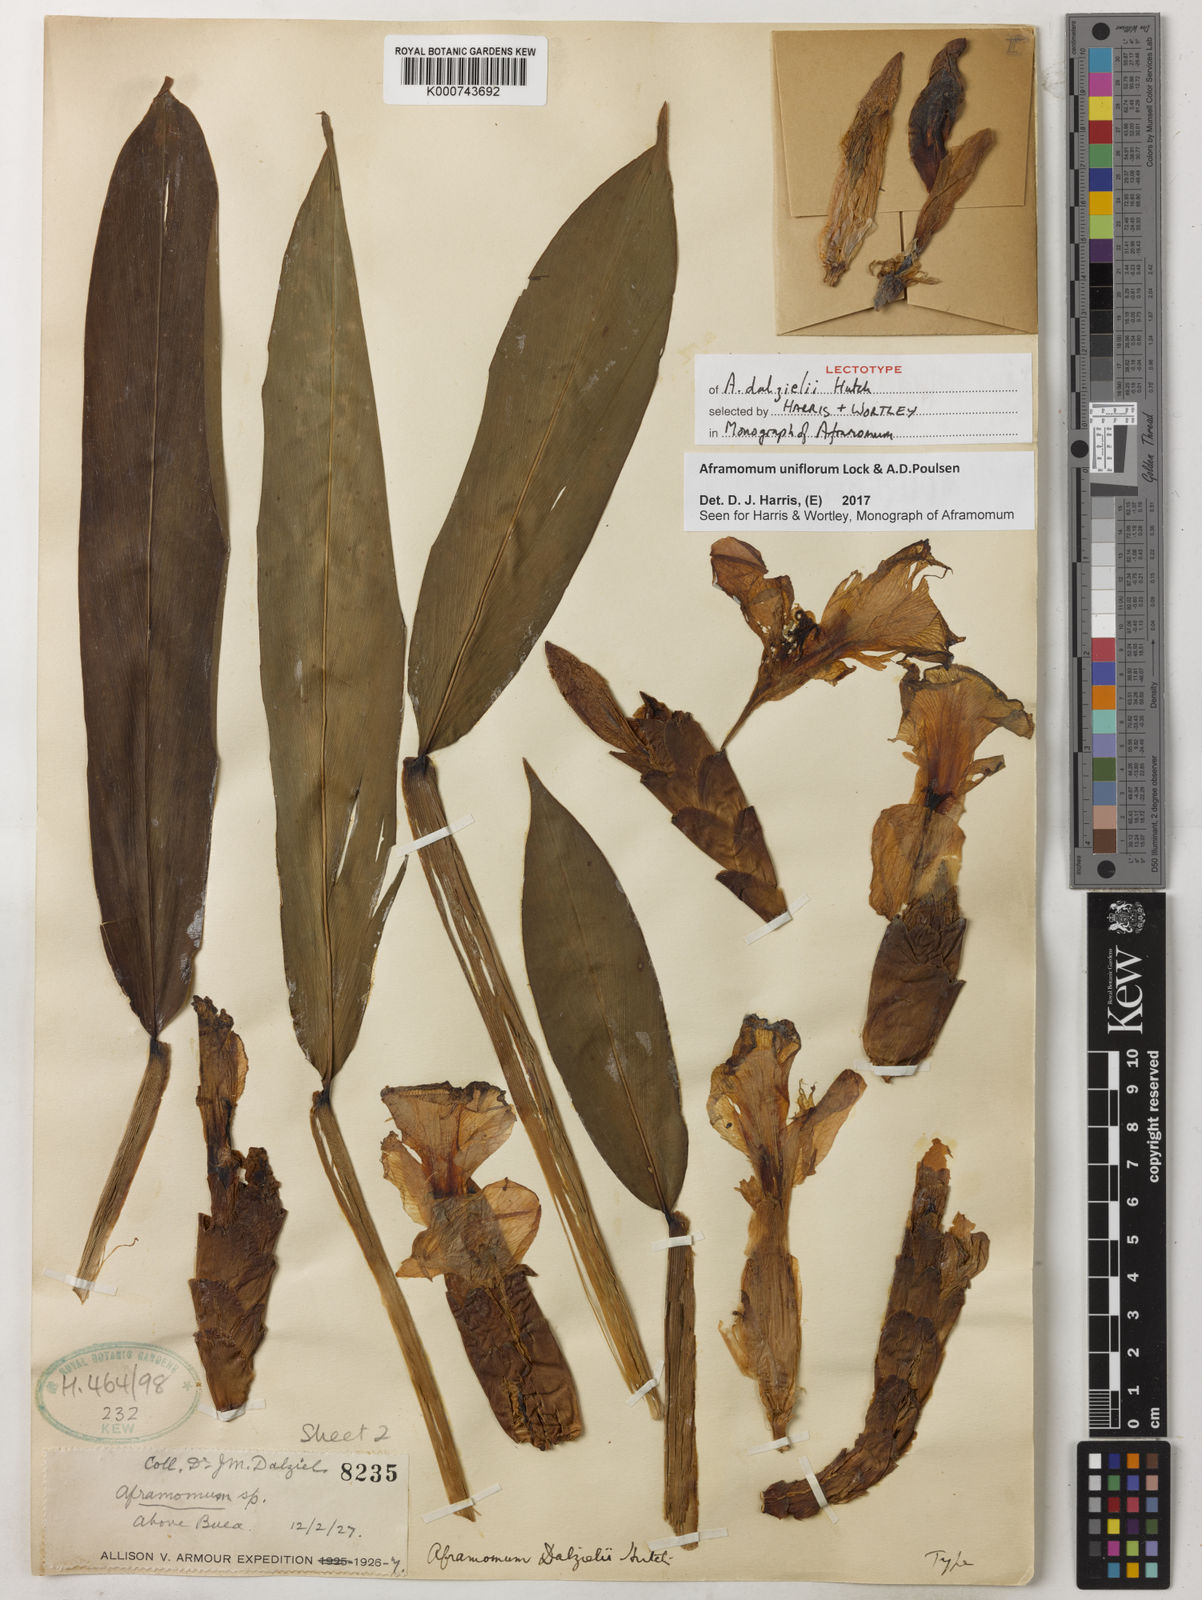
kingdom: Plantae
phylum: Tracheophyta
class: Liliopsida
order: Zingiberales
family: Zingiberaceae
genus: Aframomum
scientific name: Aframomum uniflorum
